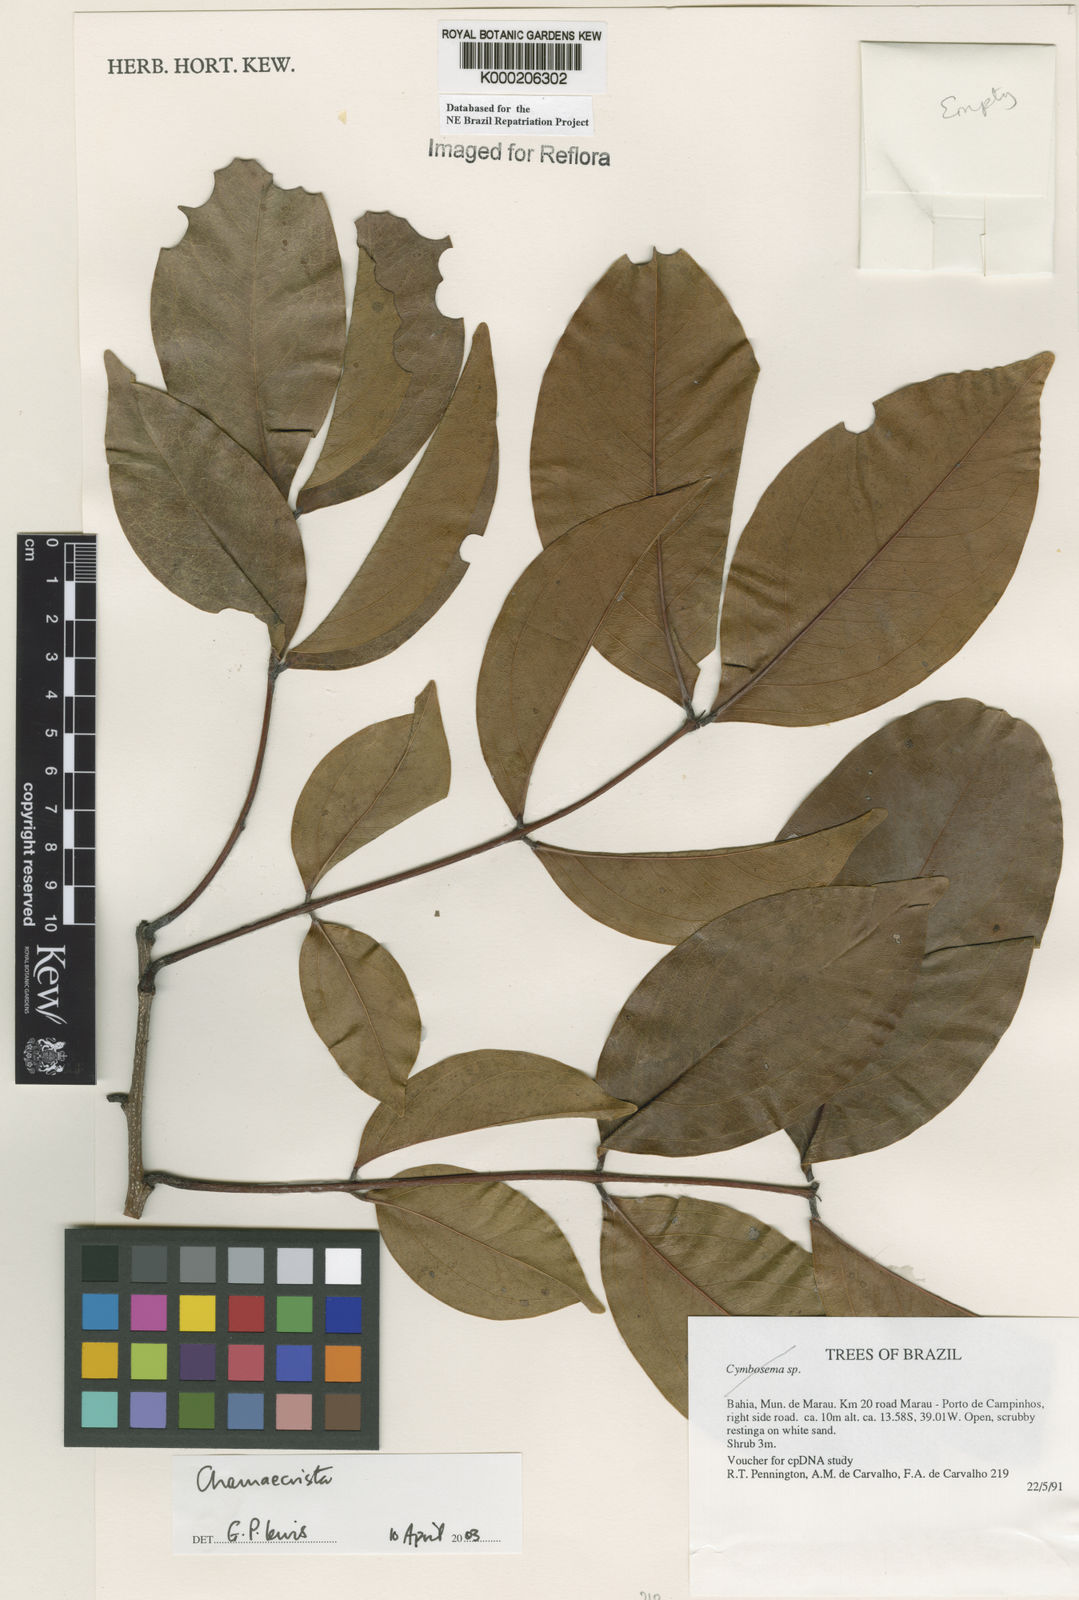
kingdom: Plantae
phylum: Tracheophyta
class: Magnoliopsida
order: Fabales
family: Fabaceae
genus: Chamaecrista
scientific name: Chamaecrista
